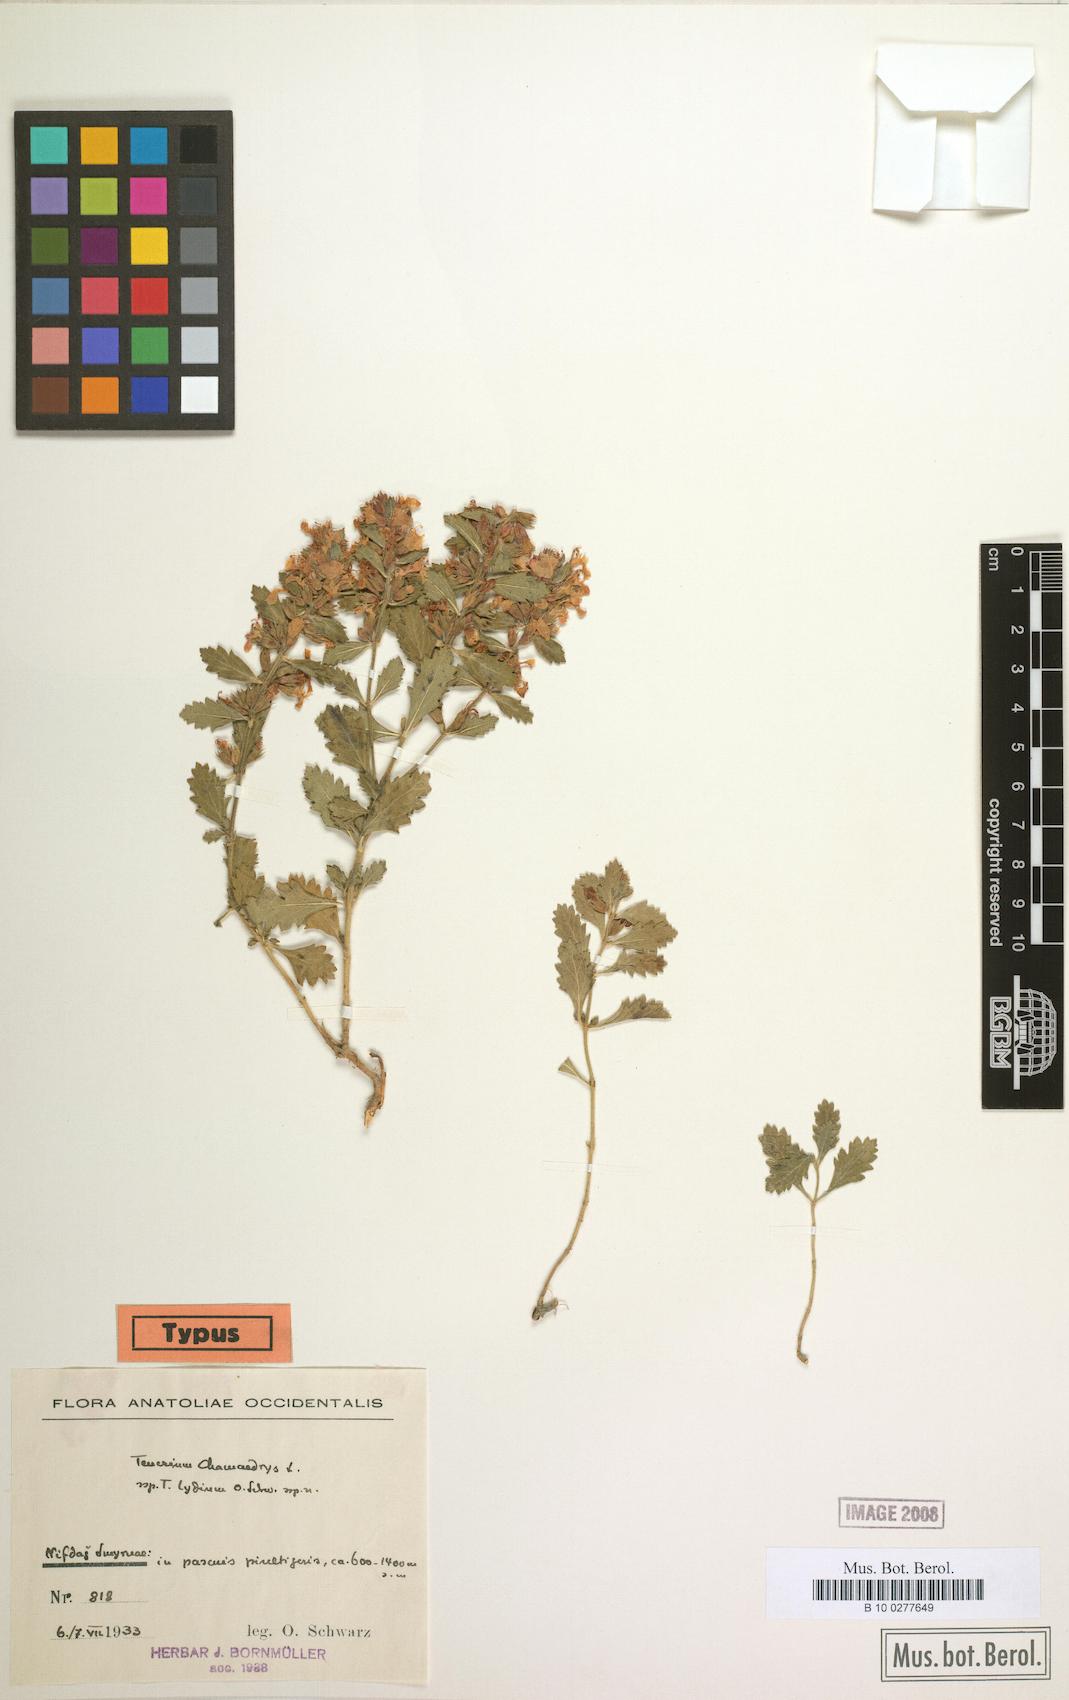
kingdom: Plantae
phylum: Tracheophyta
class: Magnoliopsida
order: Lamiales
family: Lamiaceae
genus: Teucrium
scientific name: Teucrium chamaedrys
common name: Wall germander
